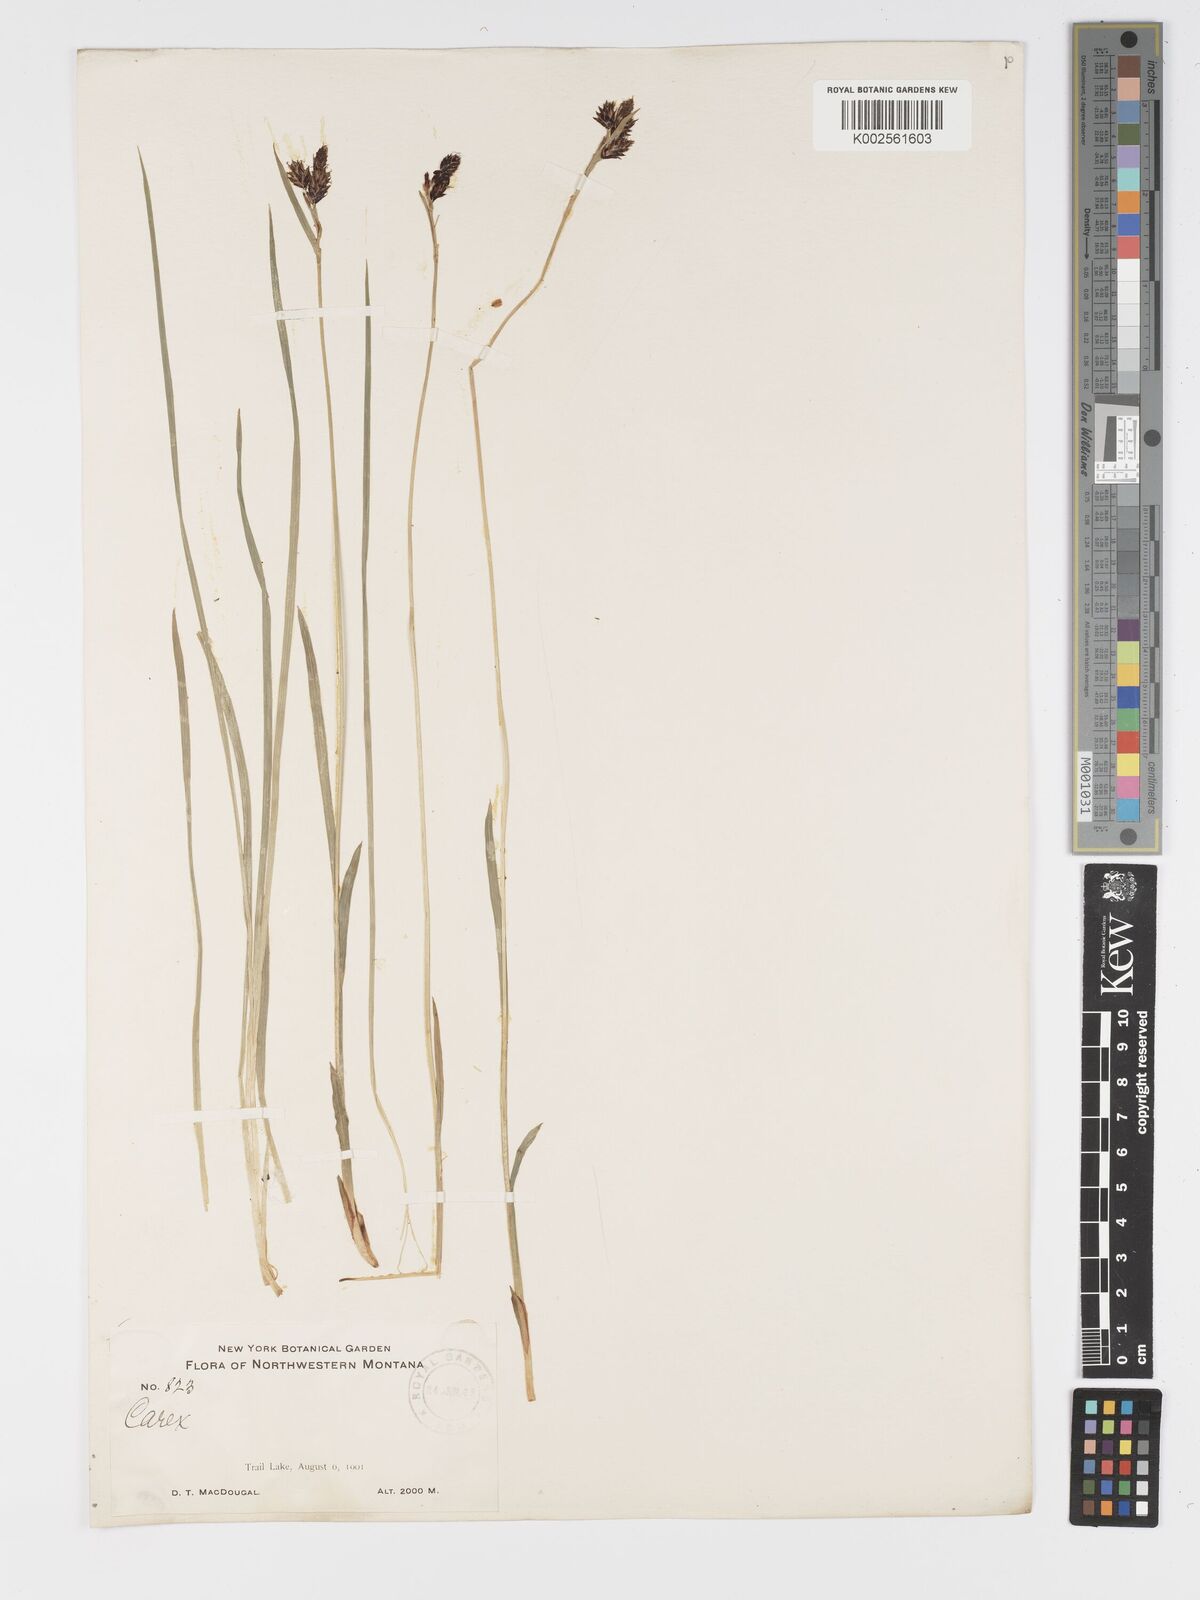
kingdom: Plantae
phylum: Tracheophyta
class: Liliopsida
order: Poales
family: Cyperaceae
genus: Carex
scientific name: Carex gmelinii
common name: Gmelin's sedge
